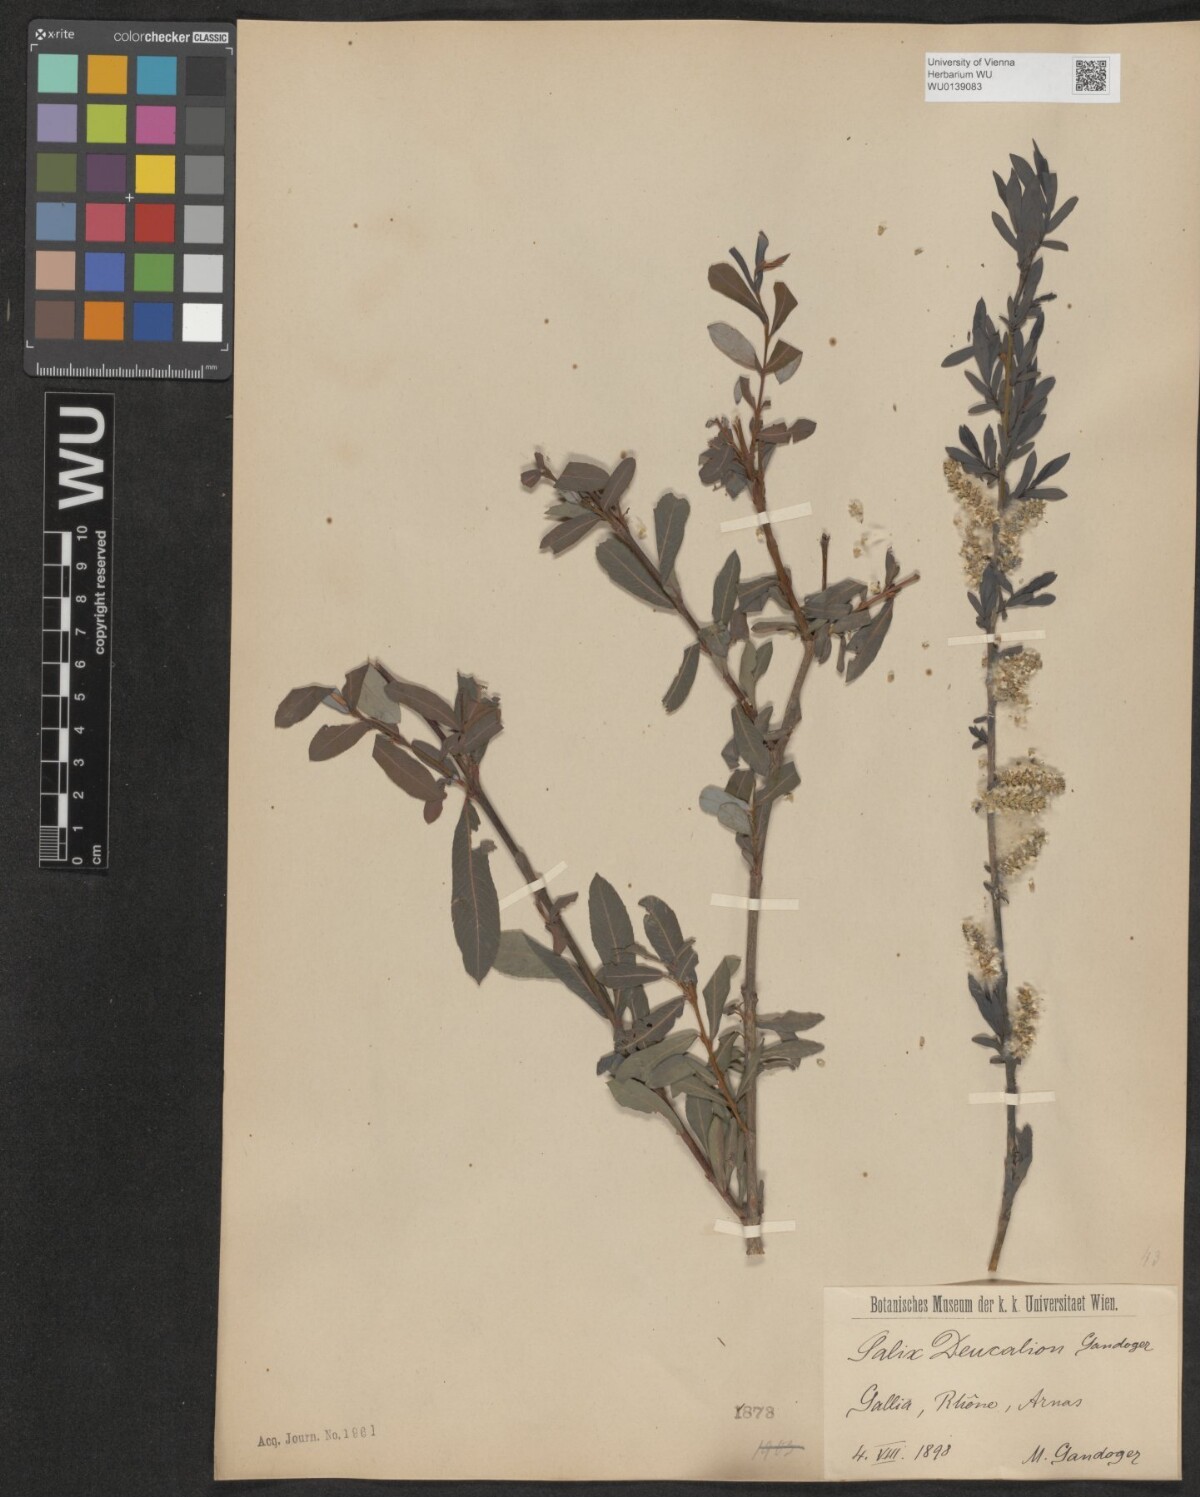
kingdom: Plantae
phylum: Tracheophyta
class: Magnoliopsida
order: Malpighiales
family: Salicaceae
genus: Salix
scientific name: Salix purpurea
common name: Purple willow
